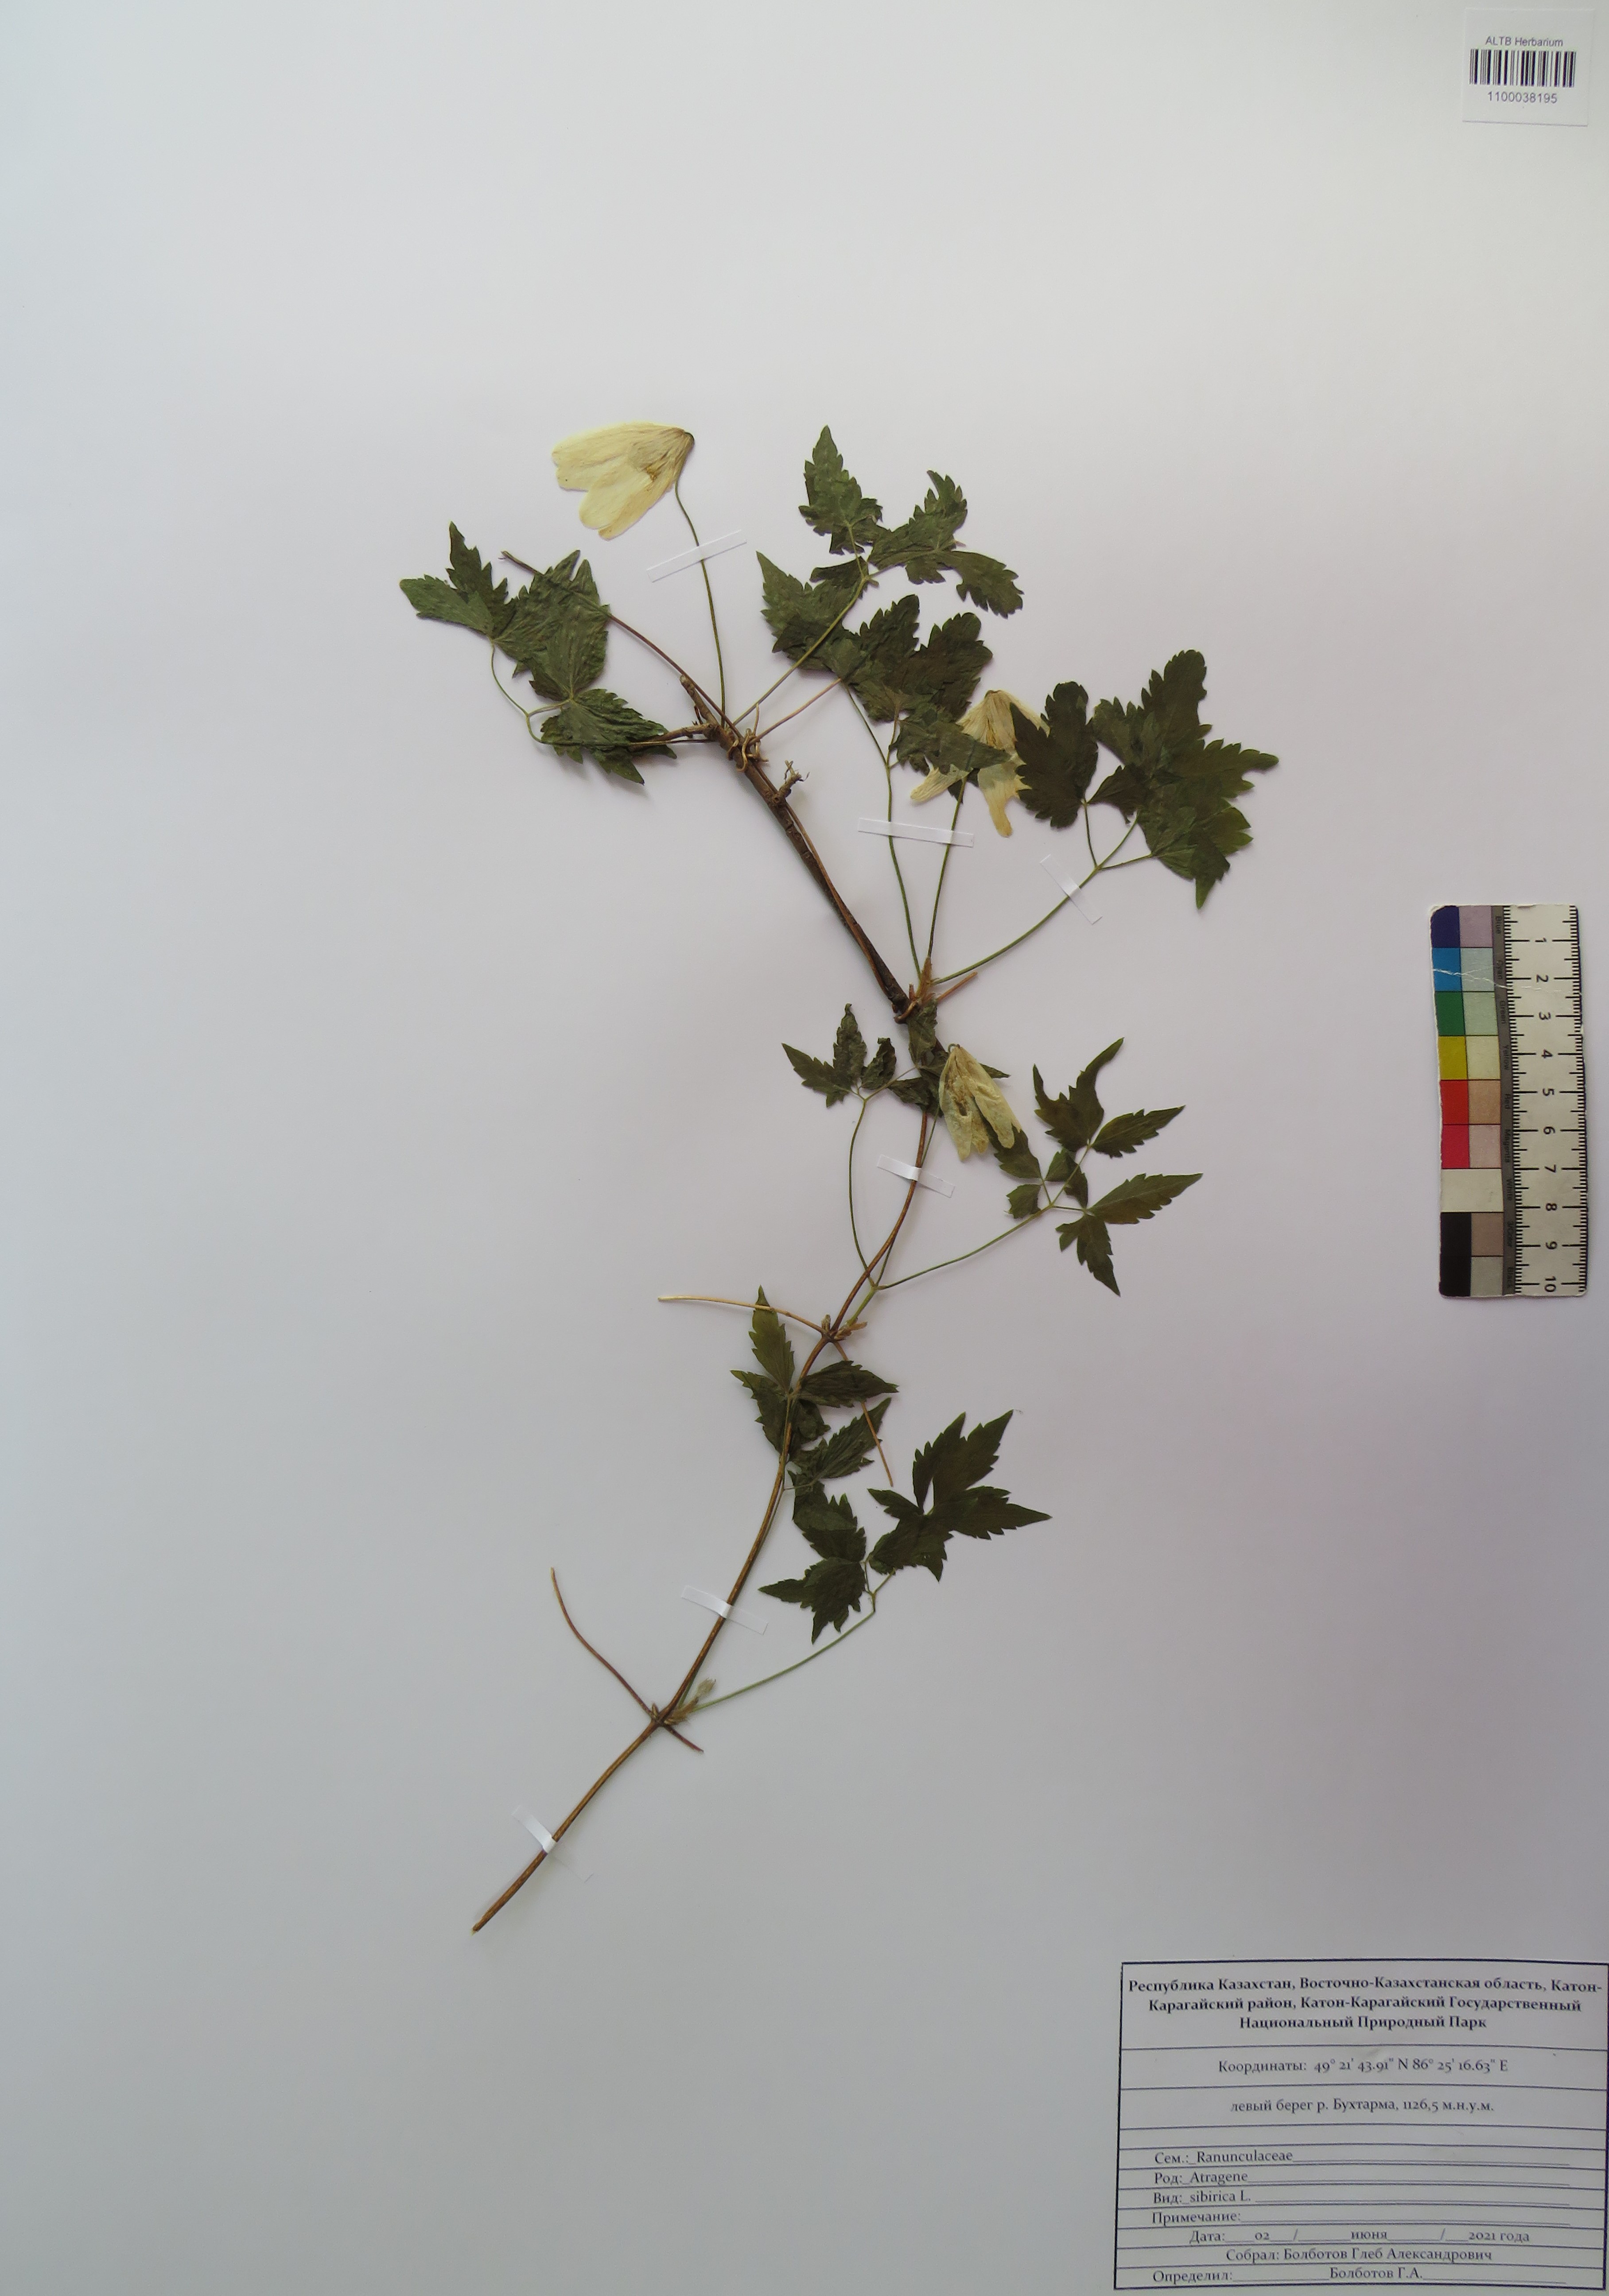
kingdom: Plantae
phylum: Tracheophyta
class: Magnoliopsida
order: Ranunculales
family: Ranunculaceae
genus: Clematis
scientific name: Clematis sibirica
